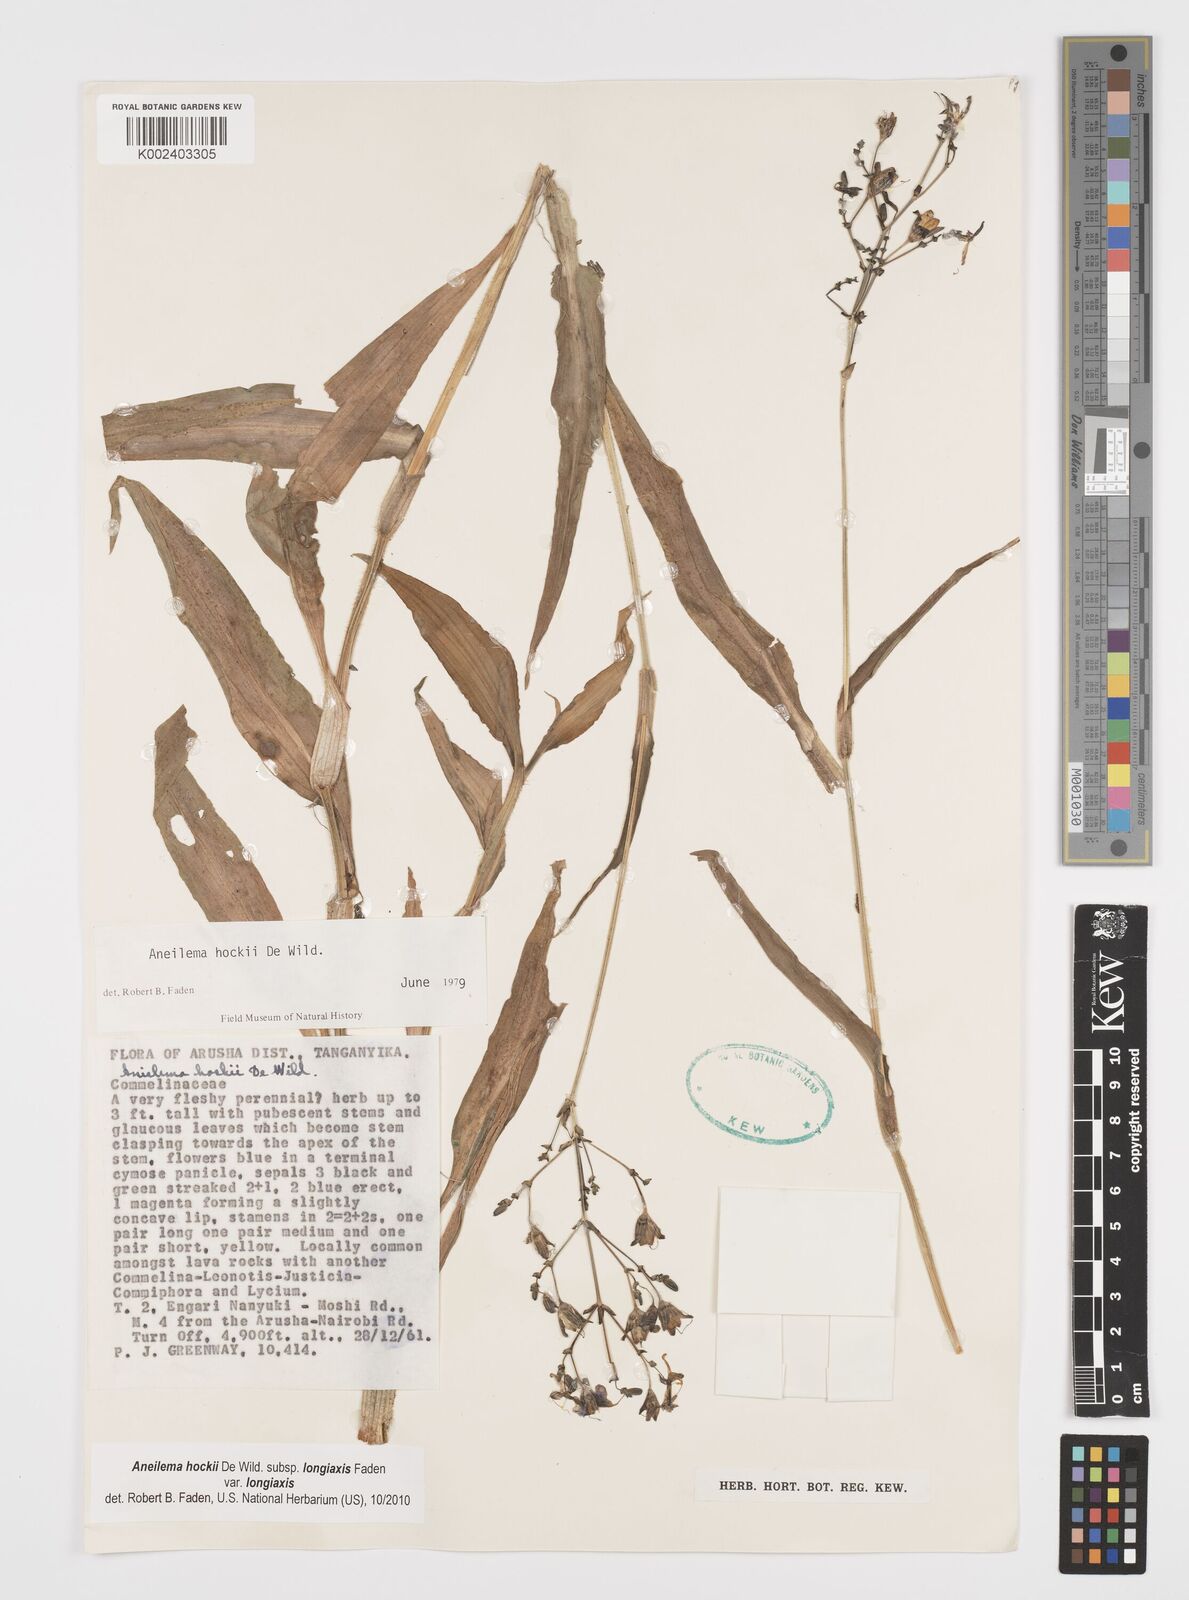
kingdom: Plantae
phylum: Tracheophyta
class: Liliopsida
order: Commelinales
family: Commelinaceae
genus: Aneilema
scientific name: Aneilema hockii
